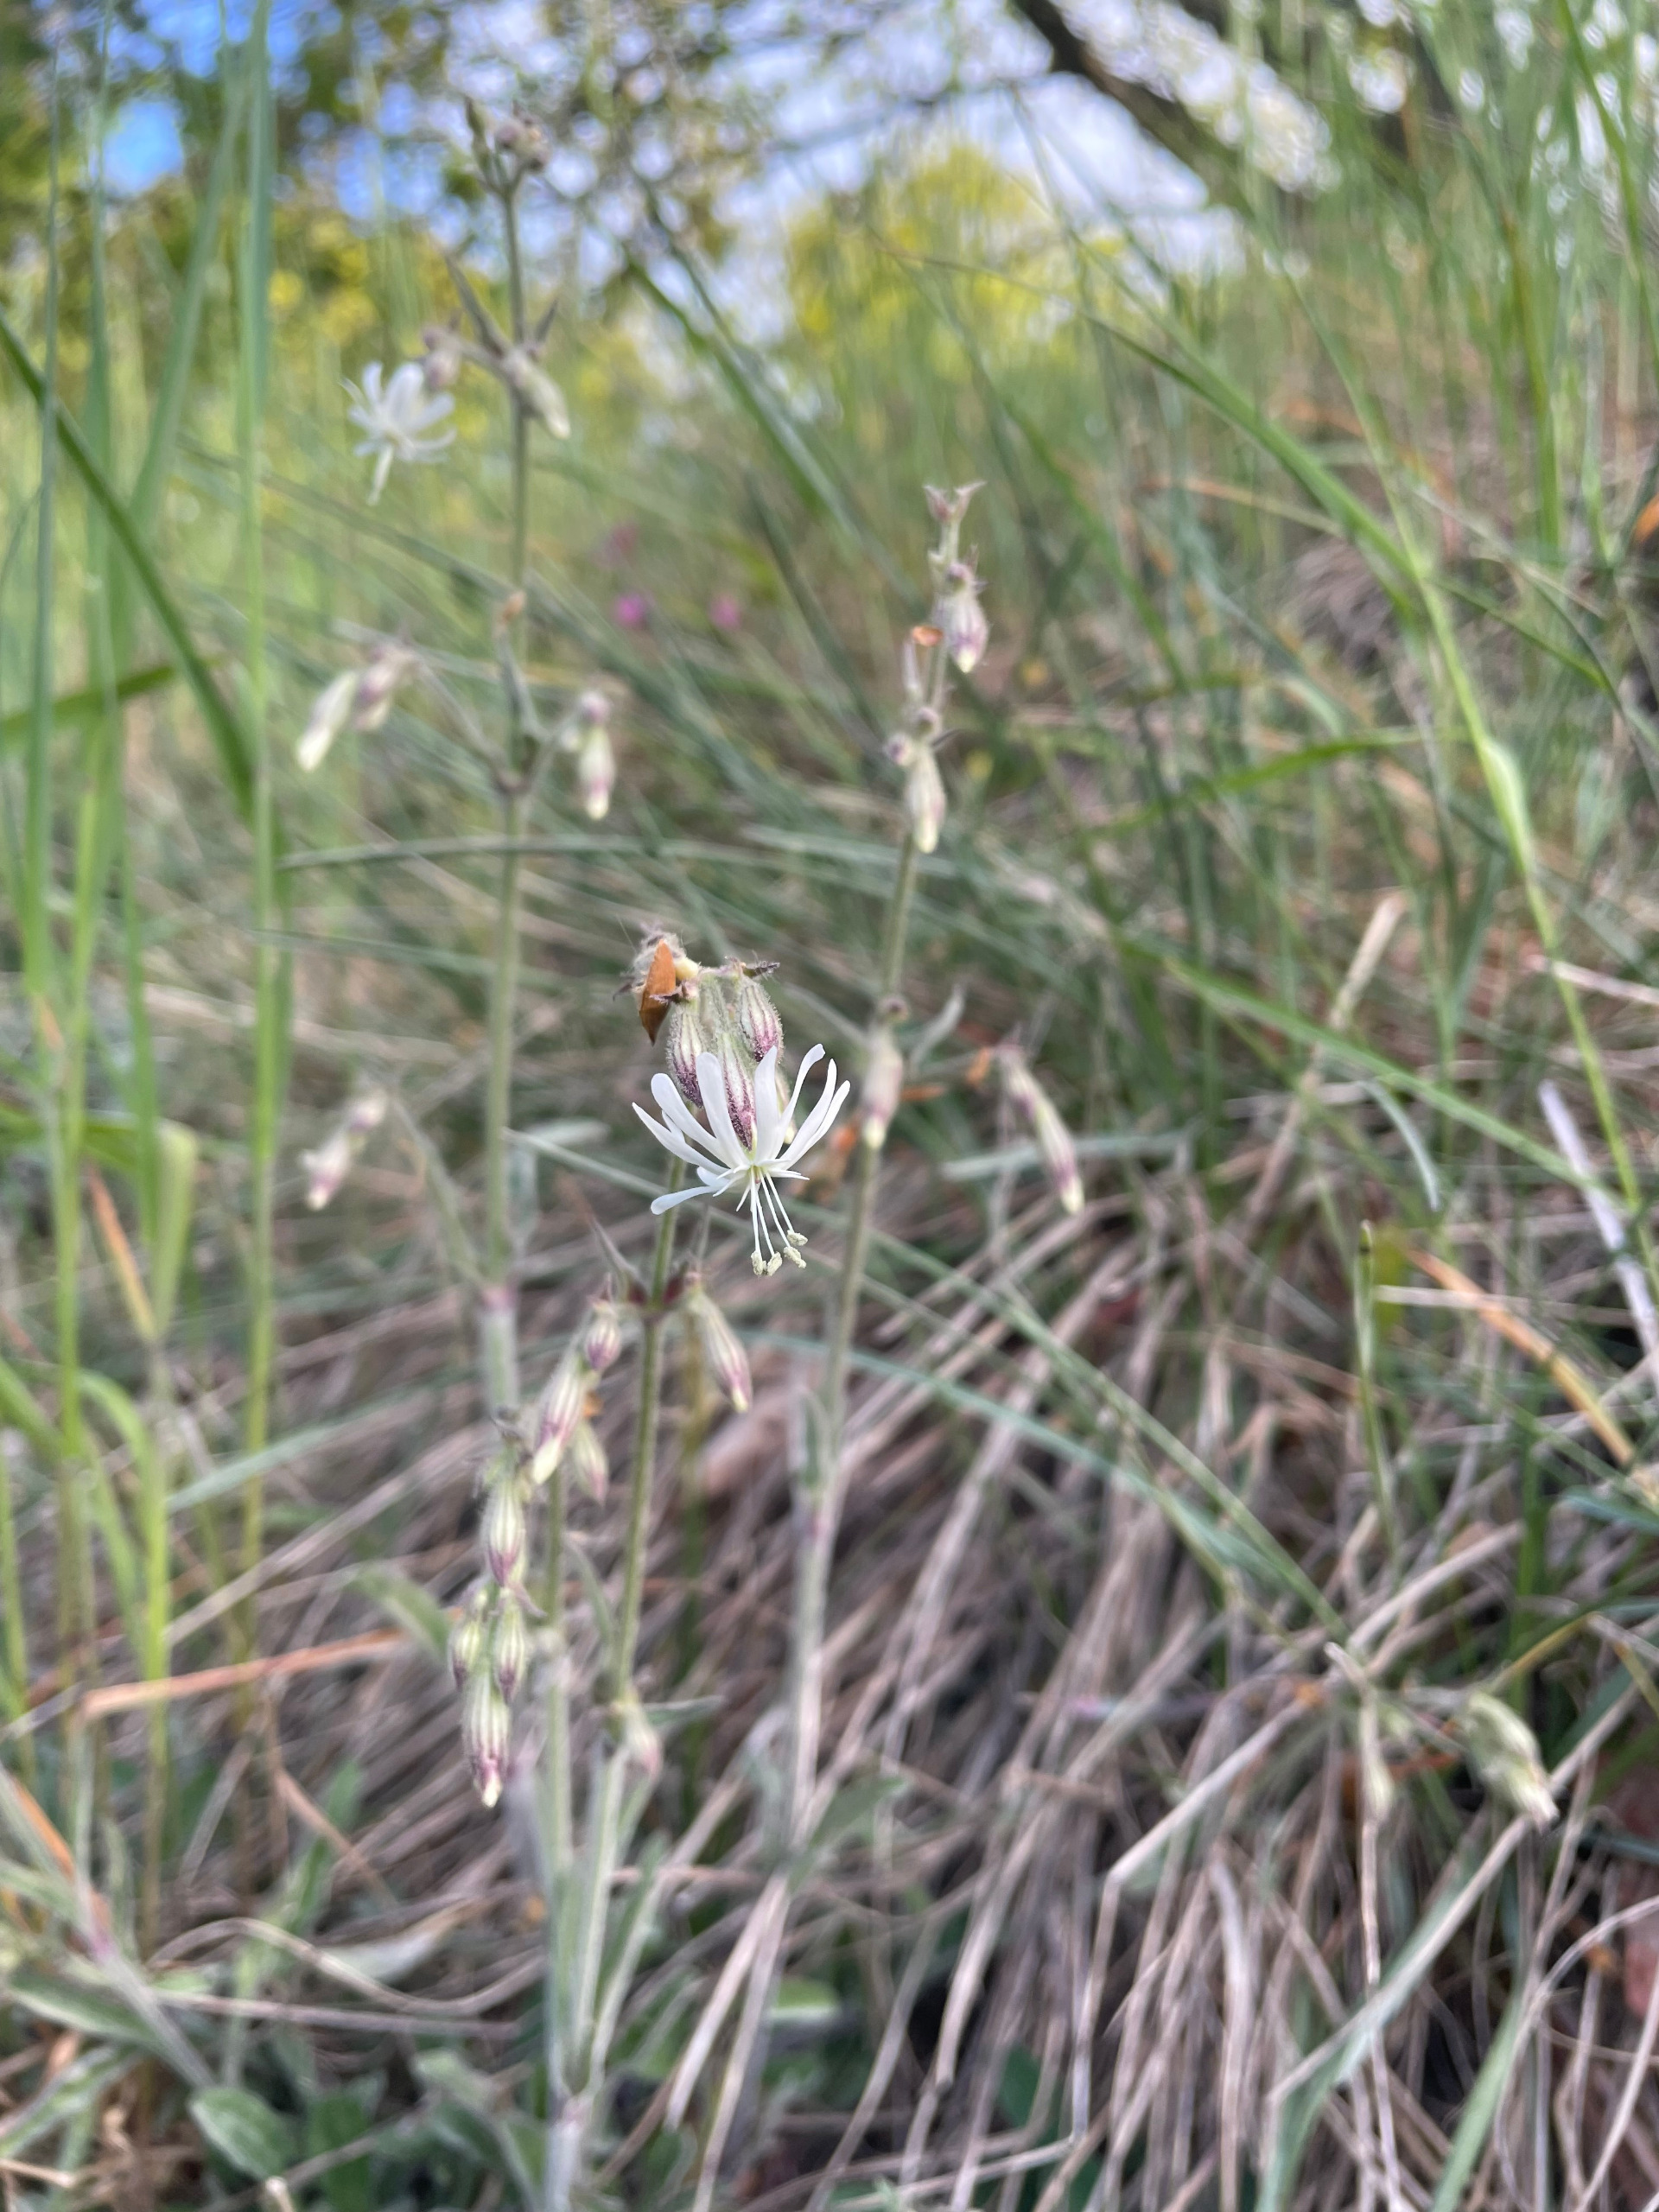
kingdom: Plantae
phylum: Tracheophyta
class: Magnoliopsida
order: Caryophyllales
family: Caryophyllaceae
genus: Silene
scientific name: Silene nutans
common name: Nikkende limurt
